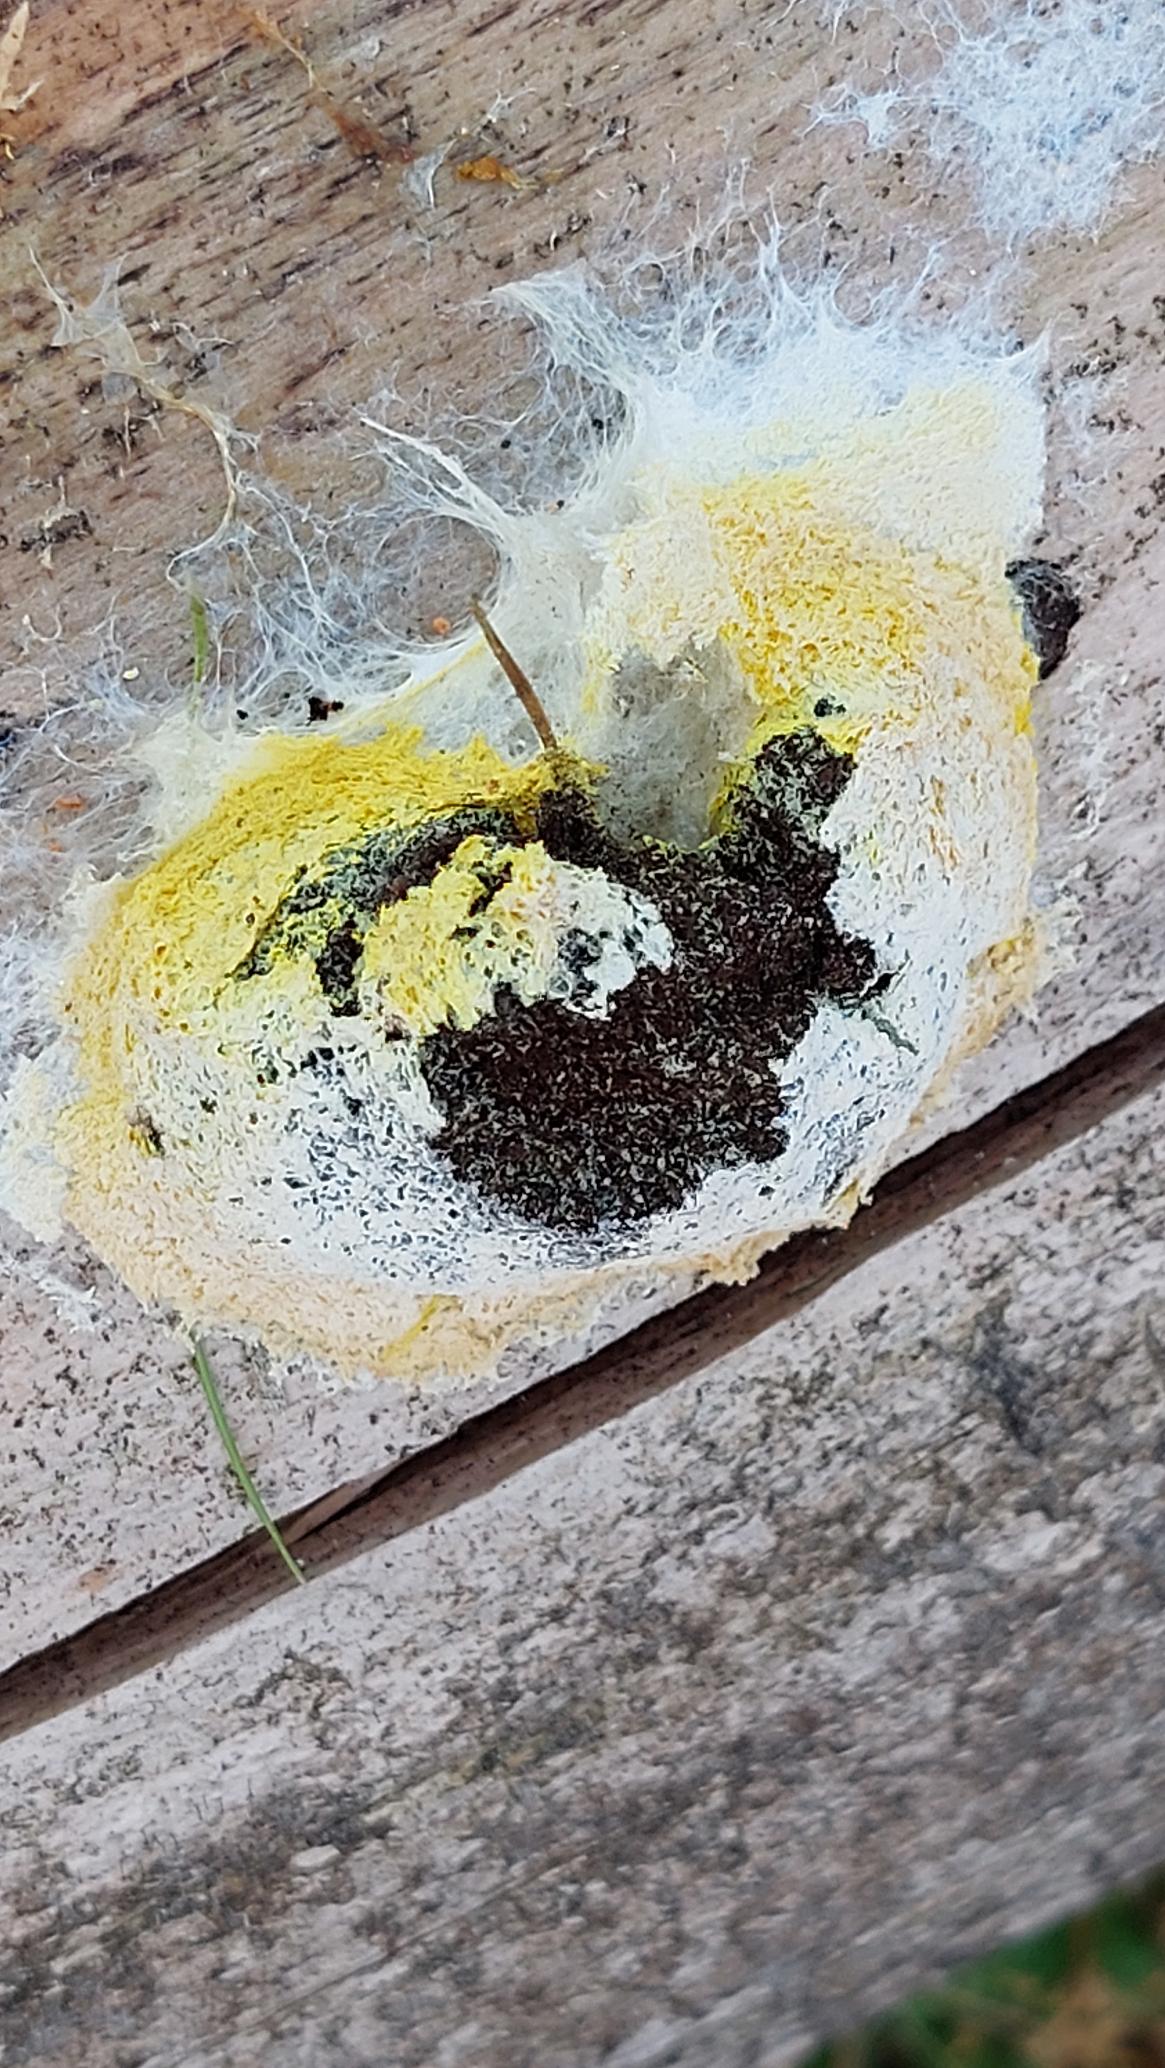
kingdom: Protozoa
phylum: Mycetozoa
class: Myxomycetes
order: Physarales
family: Physaraceae
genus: Fuligo
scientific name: Fuligo septica
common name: Gul troldsmør
